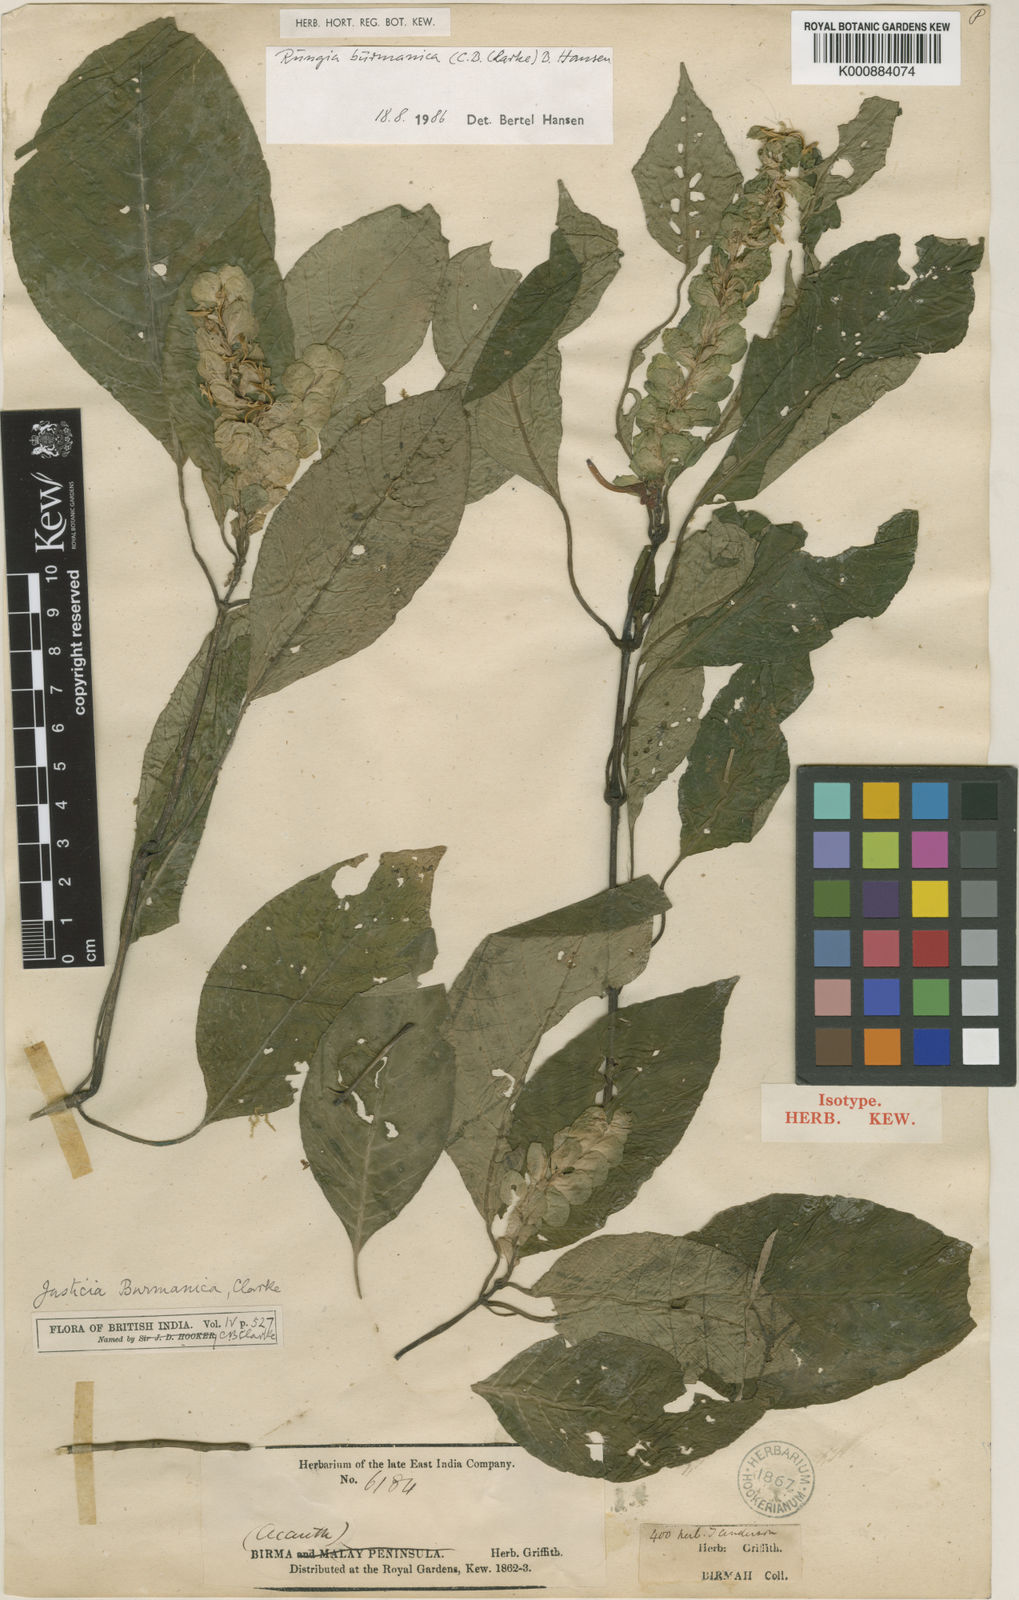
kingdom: Plantae
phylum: Tracheophyta
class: Magnoliopsida
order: Lamiales
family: Acanthaceae
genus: Rungia
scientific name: Rungia burmanica
